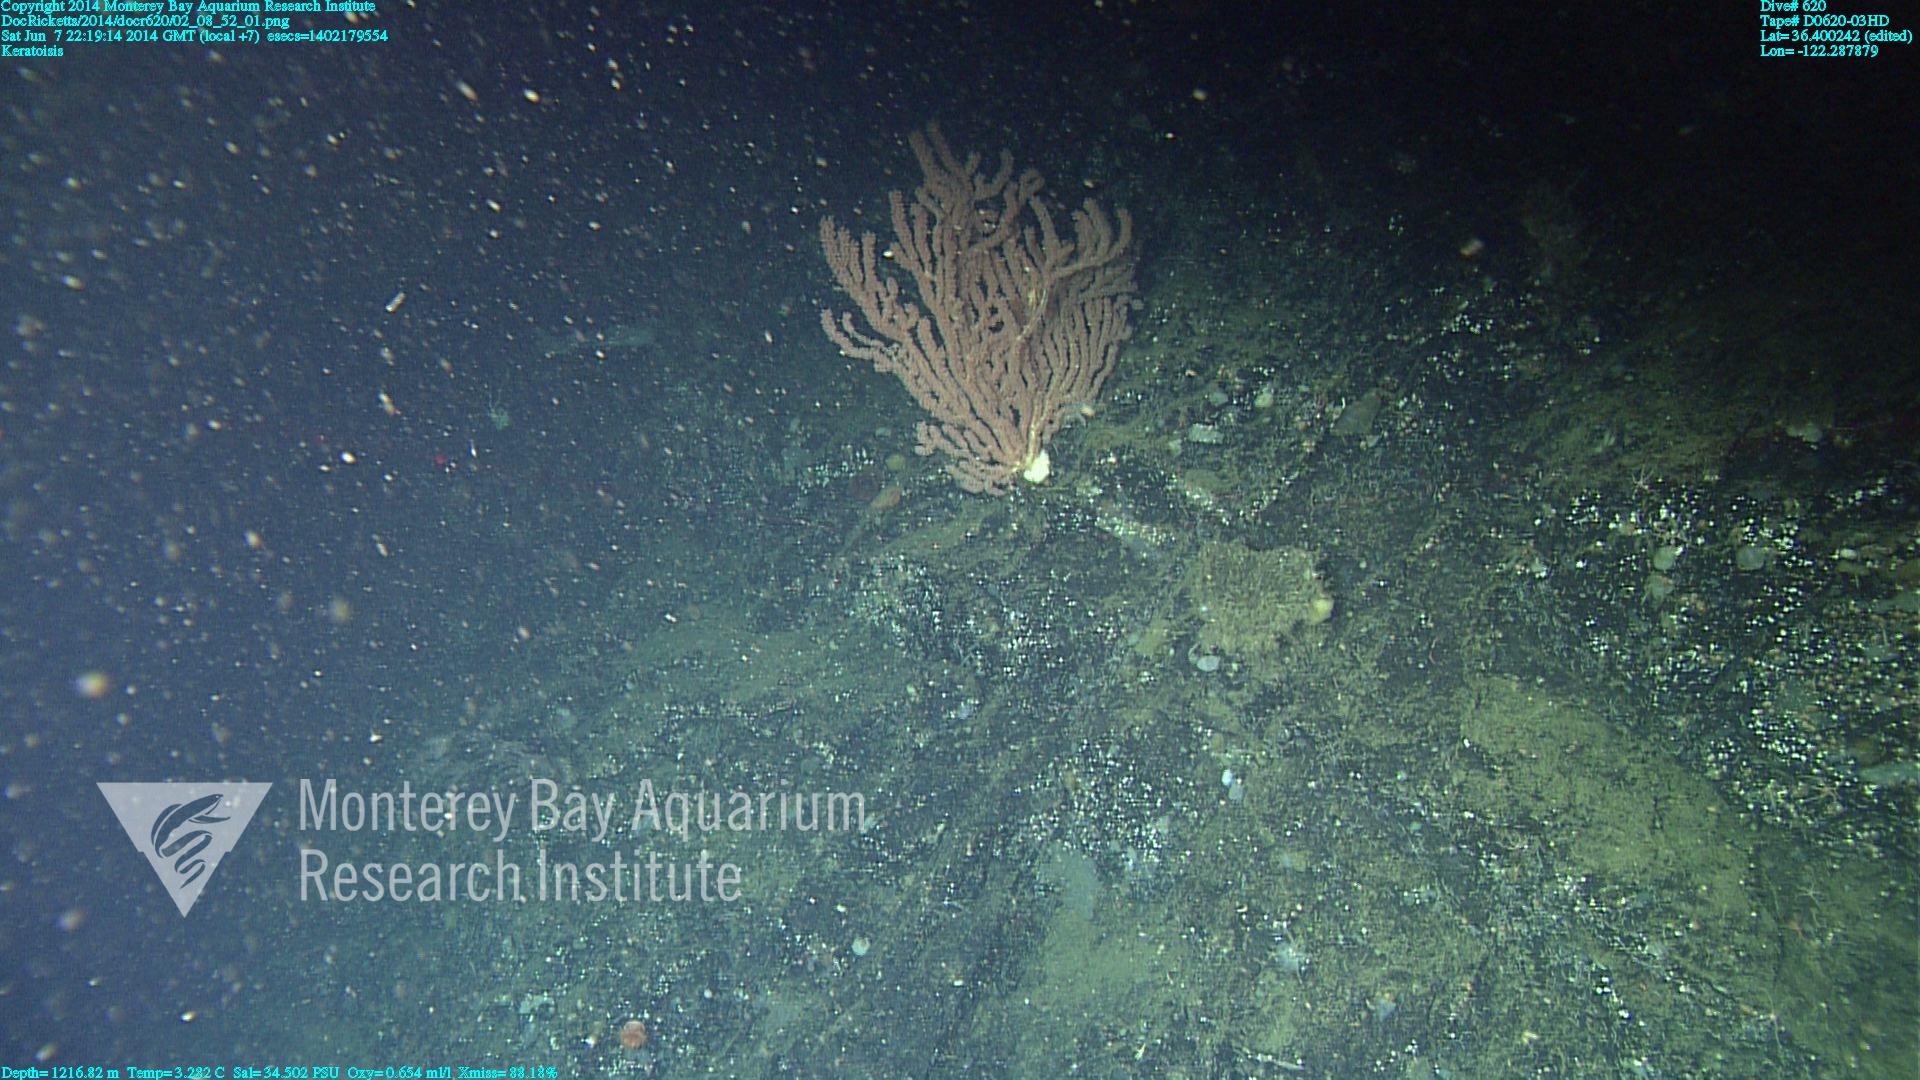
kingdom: Animalia
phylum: Cnidaria
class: Anthozoa
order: Scleralcyonacea
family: Keratoisididae
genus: Keratoisis
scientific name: Keratoisis
